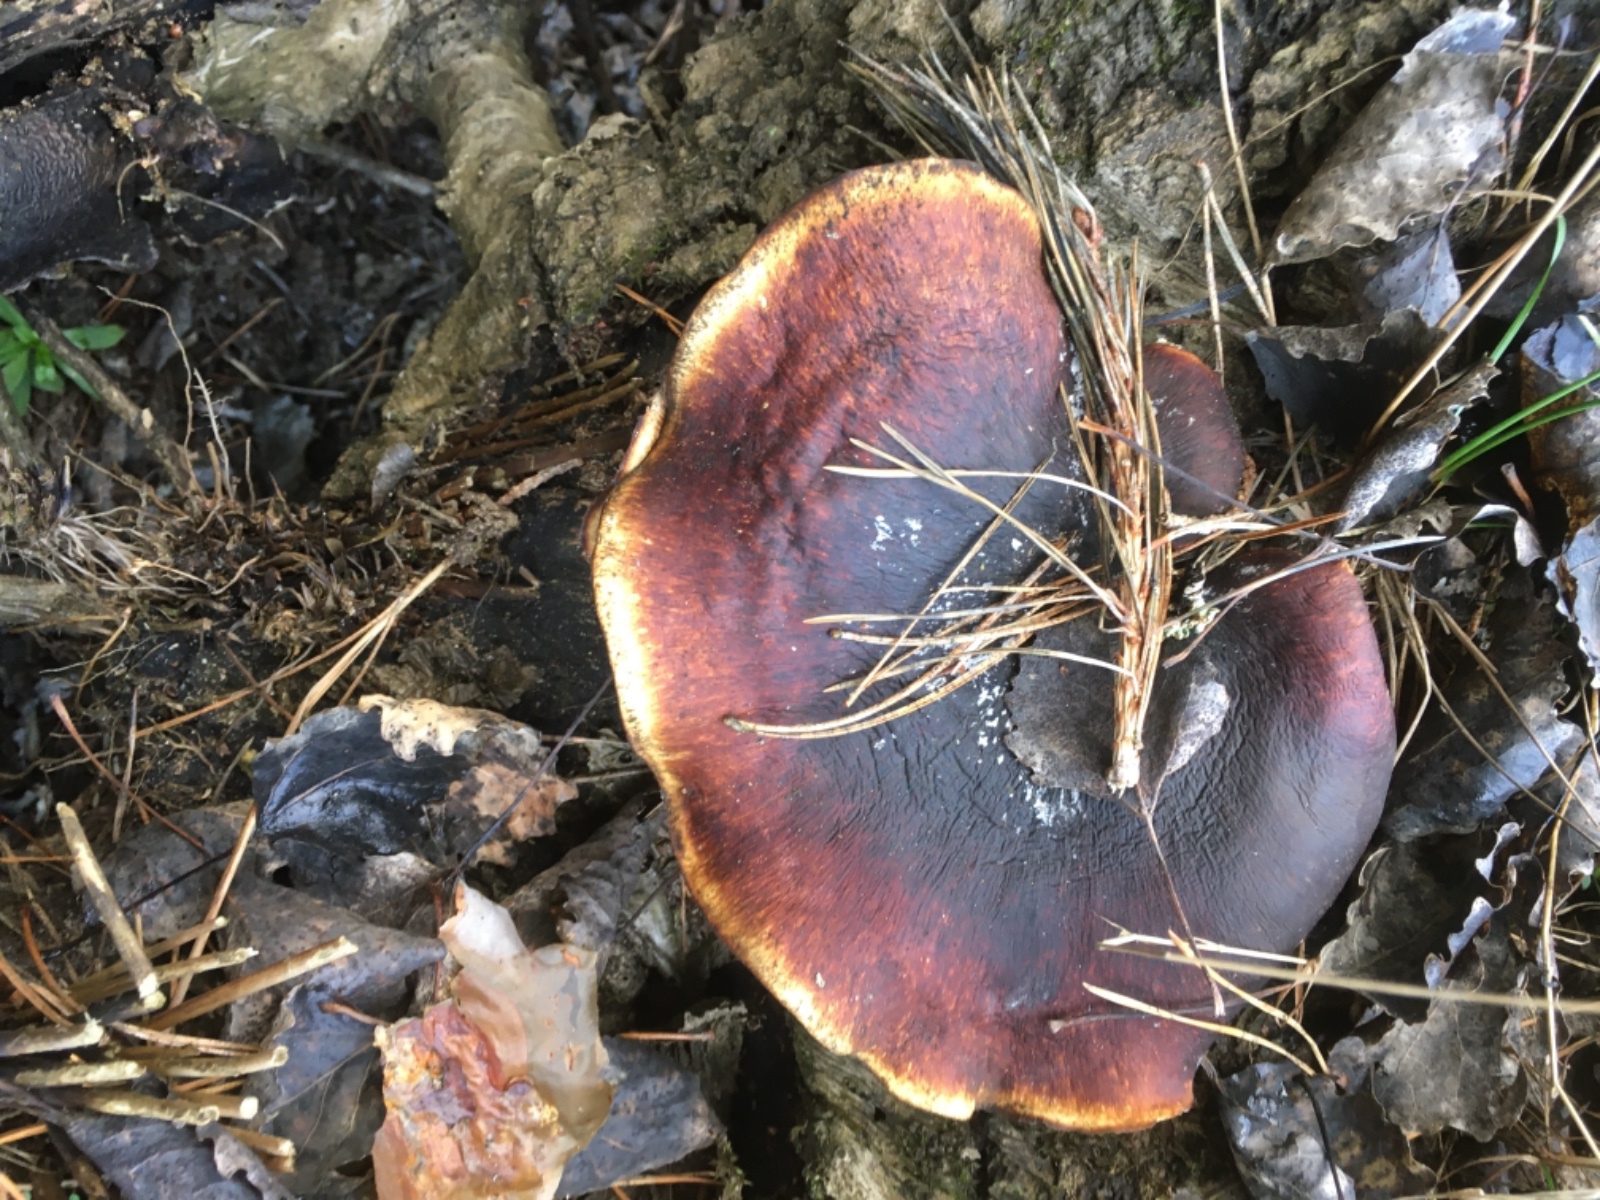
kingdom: Fungi
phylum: Basidiomycota
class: Agaricomycetes
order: Polyporales
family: Polyporaceae
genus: Picipes
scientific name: Picipes badius
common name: kastaniebrun stilkporesvamp
